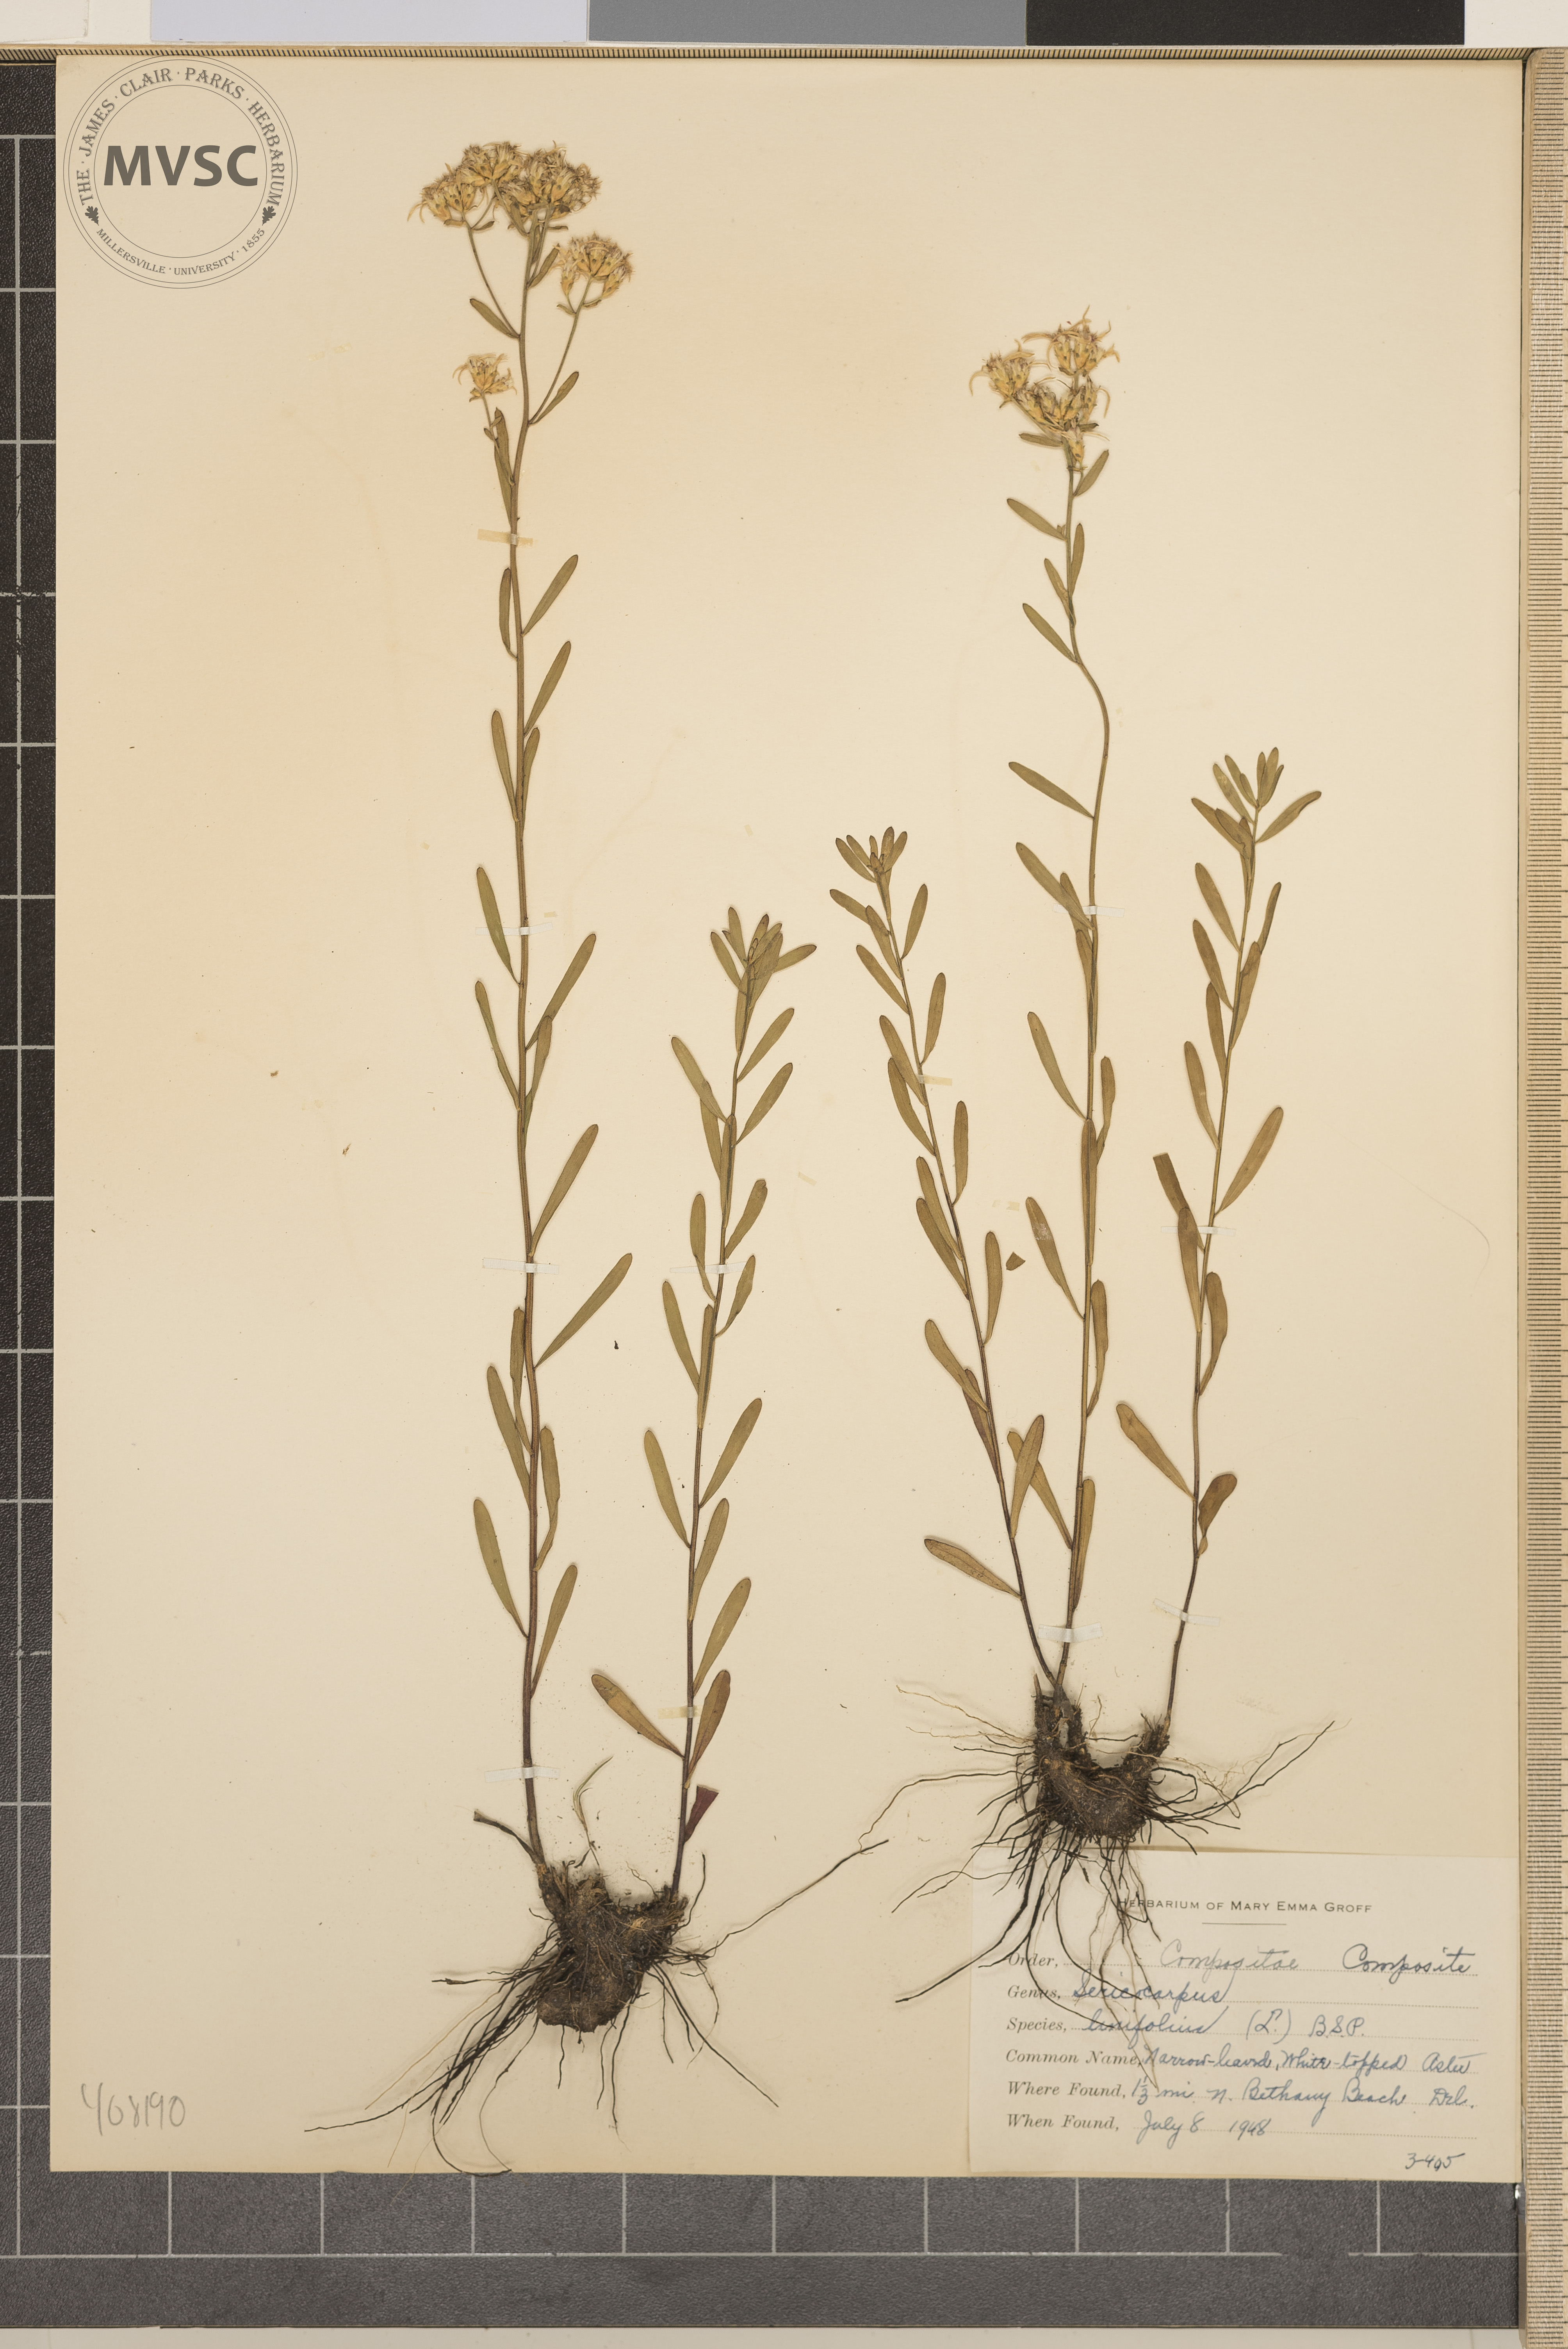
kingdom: Plantae
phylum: Tracheophyta
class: Magnoliopsida
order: Asterales
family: Asteraceae
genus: Sericocarpus
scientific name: Sericocarpus linifolius
